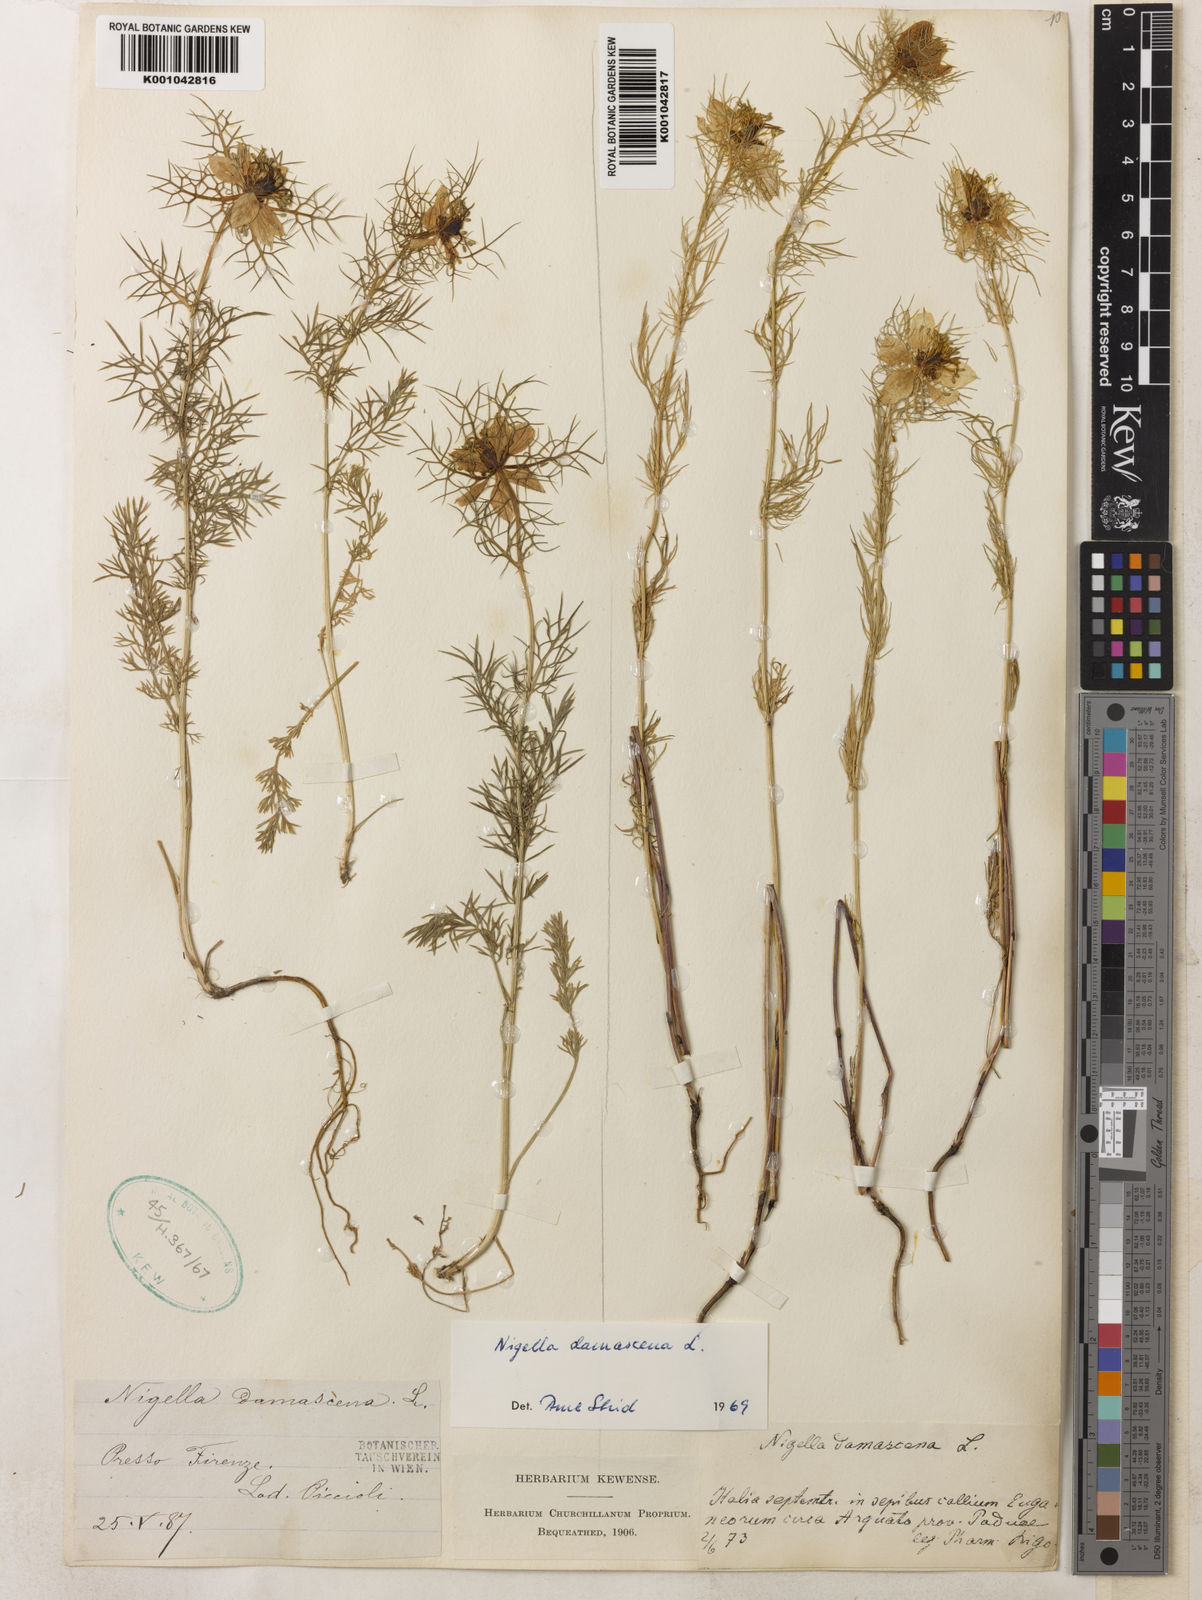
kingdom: Plantae
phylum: Tracheophyta
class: Magnoliopsida
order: Ranunculales
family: Ranunculaceae
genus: Nigella
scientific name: Nigella damascena
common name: Love-in-a-mist
